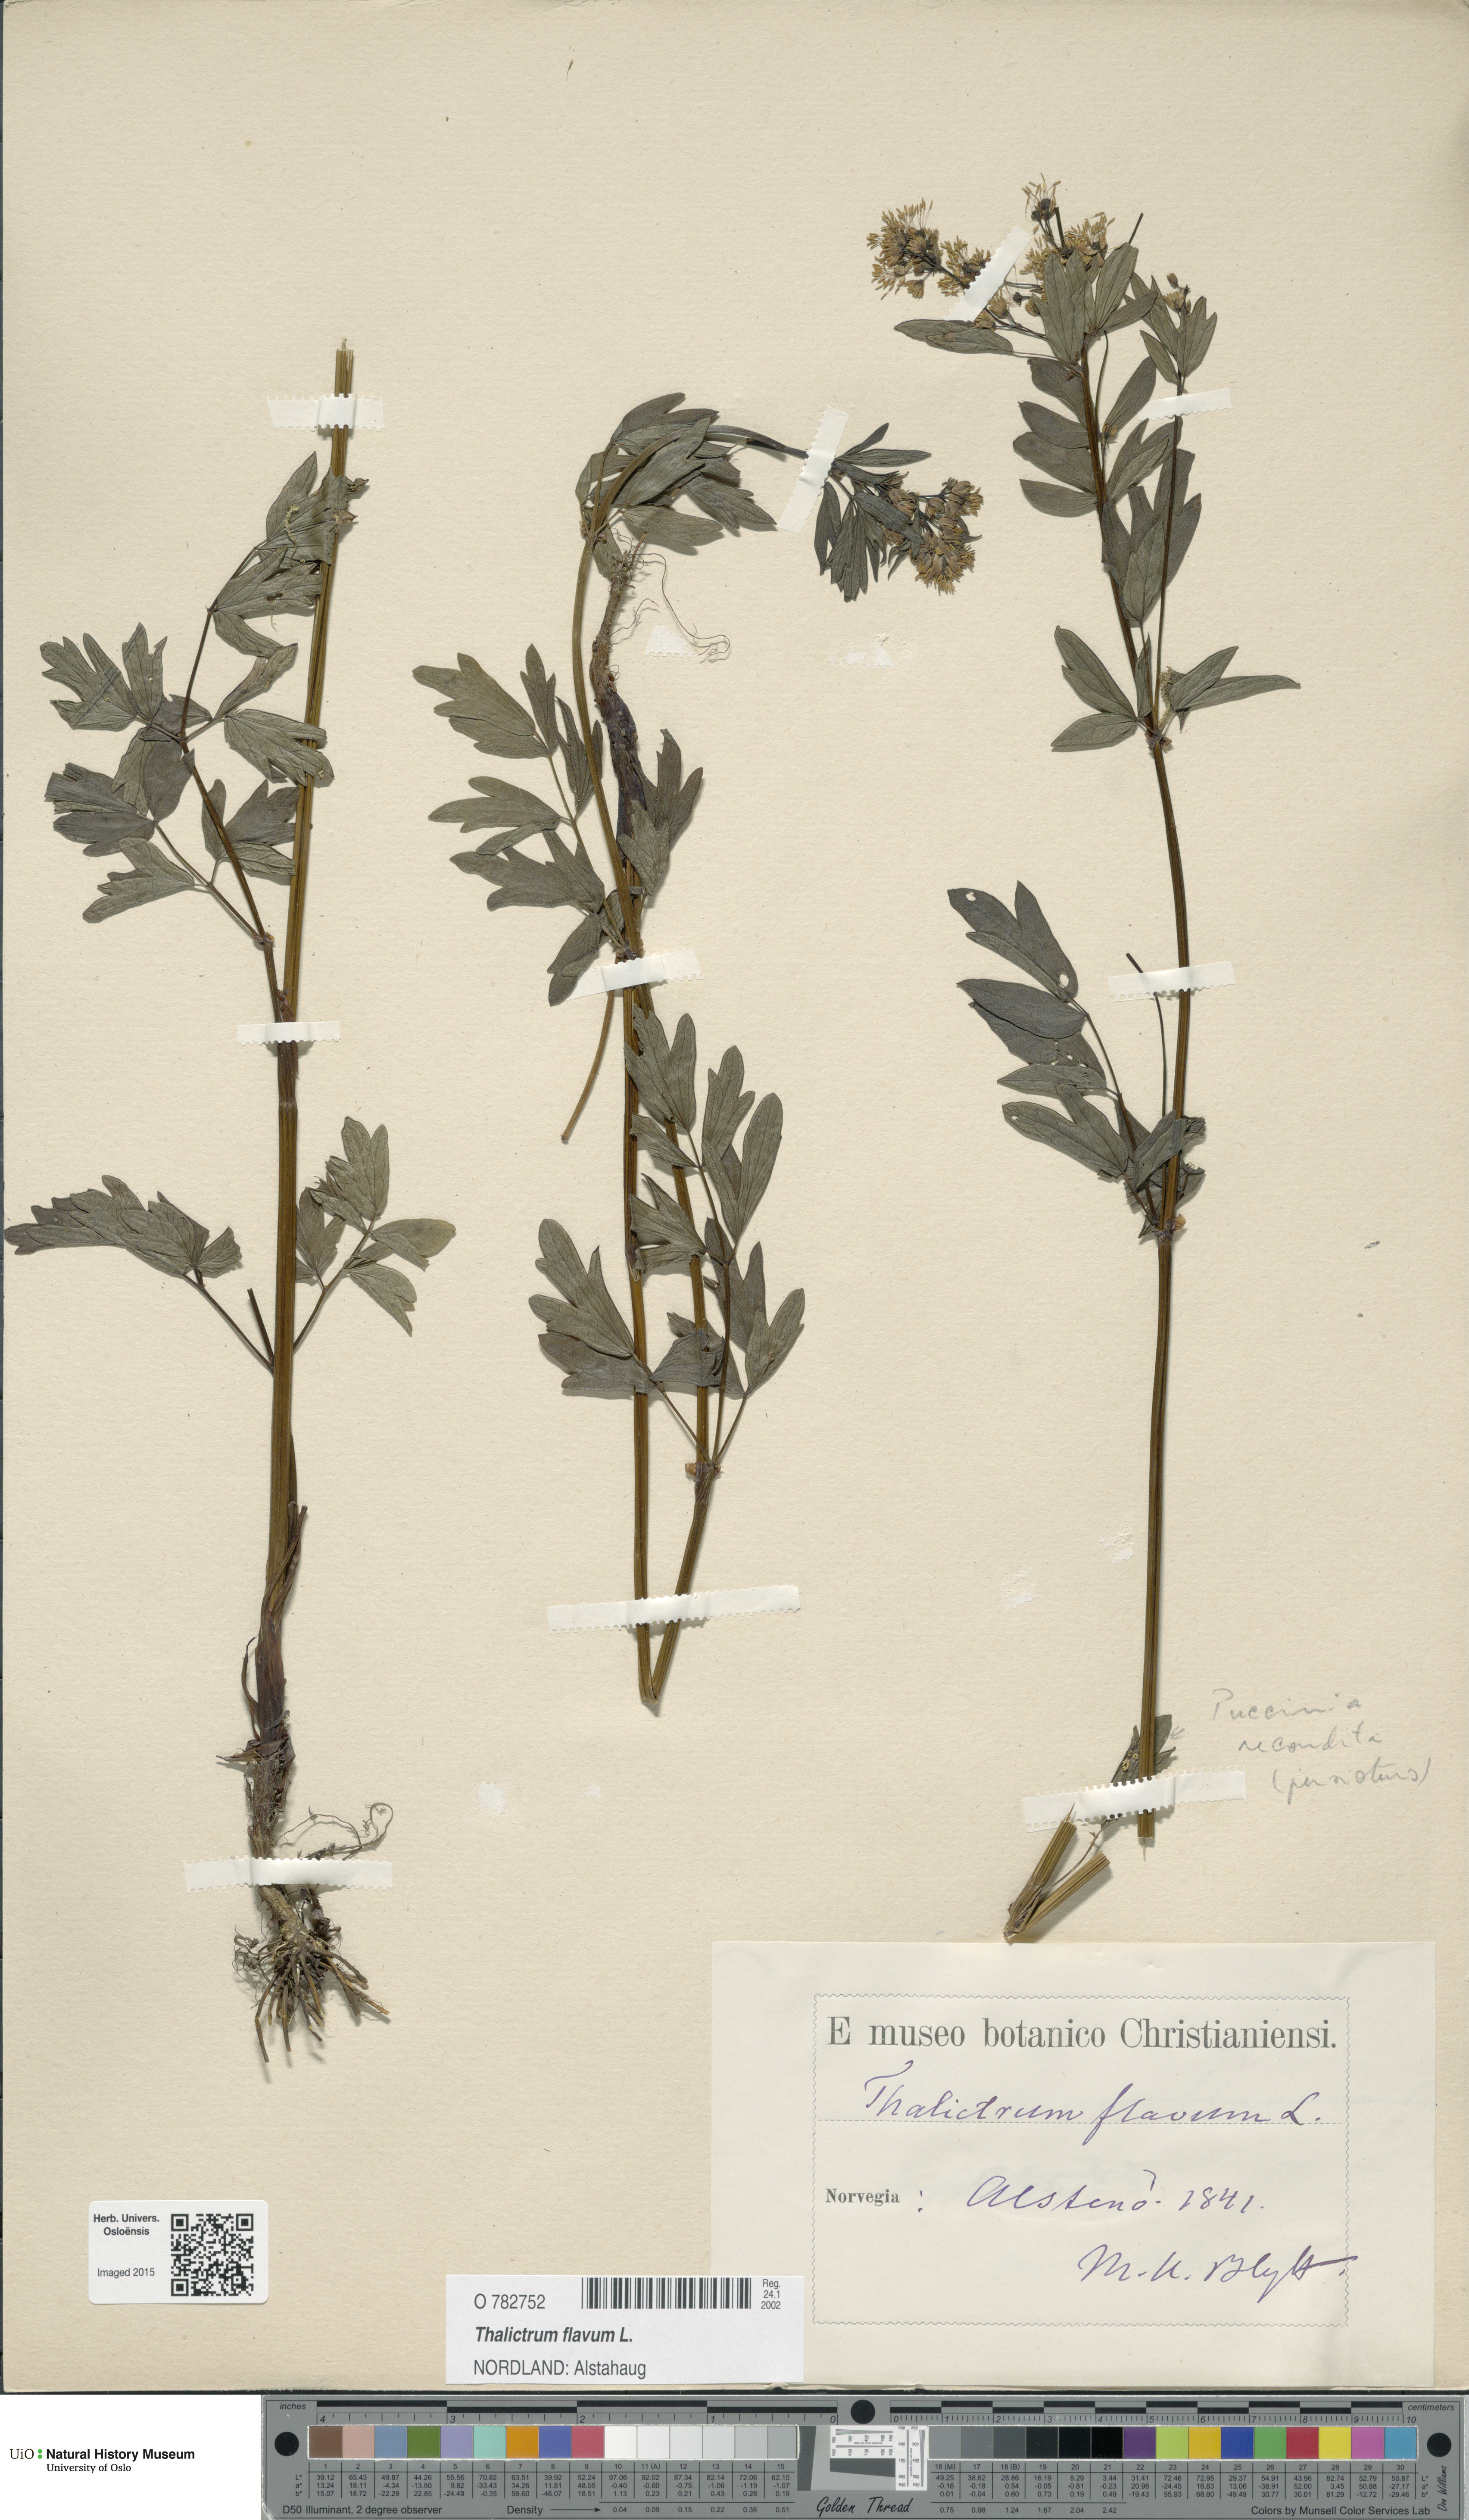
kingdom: Plantae
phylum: Tracheophyta
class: Magnoliopsida
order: Ranunculales
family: Ranunculaceae
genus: Thalictrum
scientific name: Thalictrum flavum
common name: Common meadow-rue
